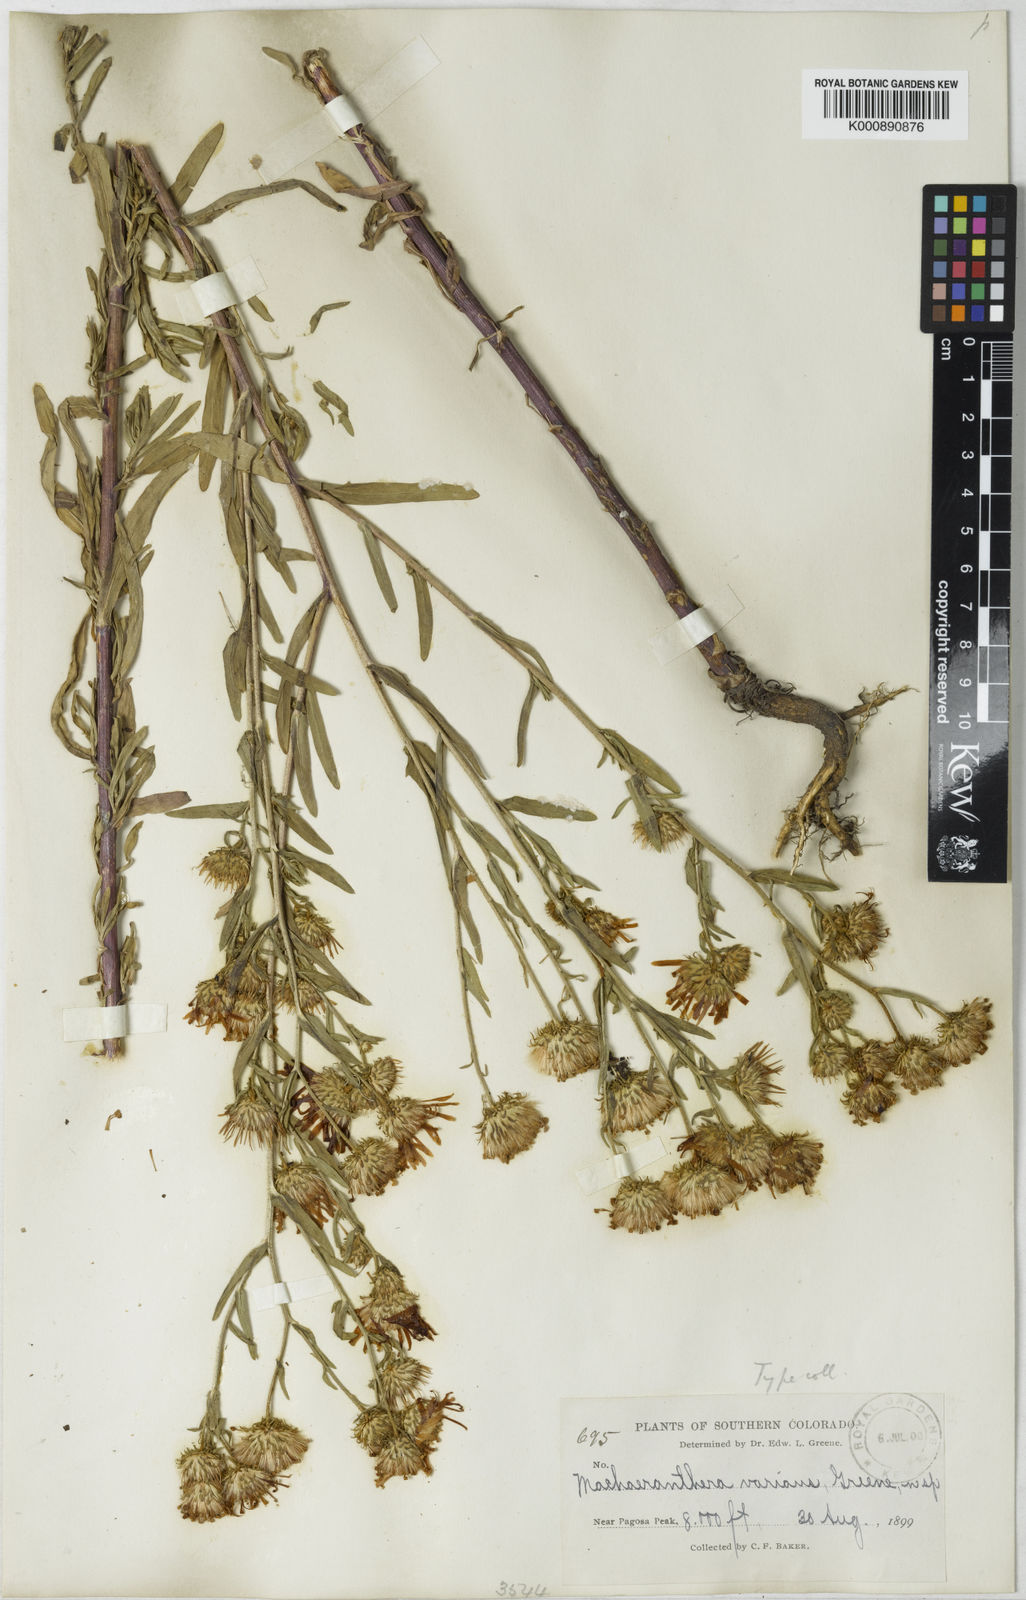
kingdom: Plantae
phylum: Tracheophyta
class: Magnoliopsida
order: Asterales
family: Asteraceae
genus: Aster
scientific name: Aster
